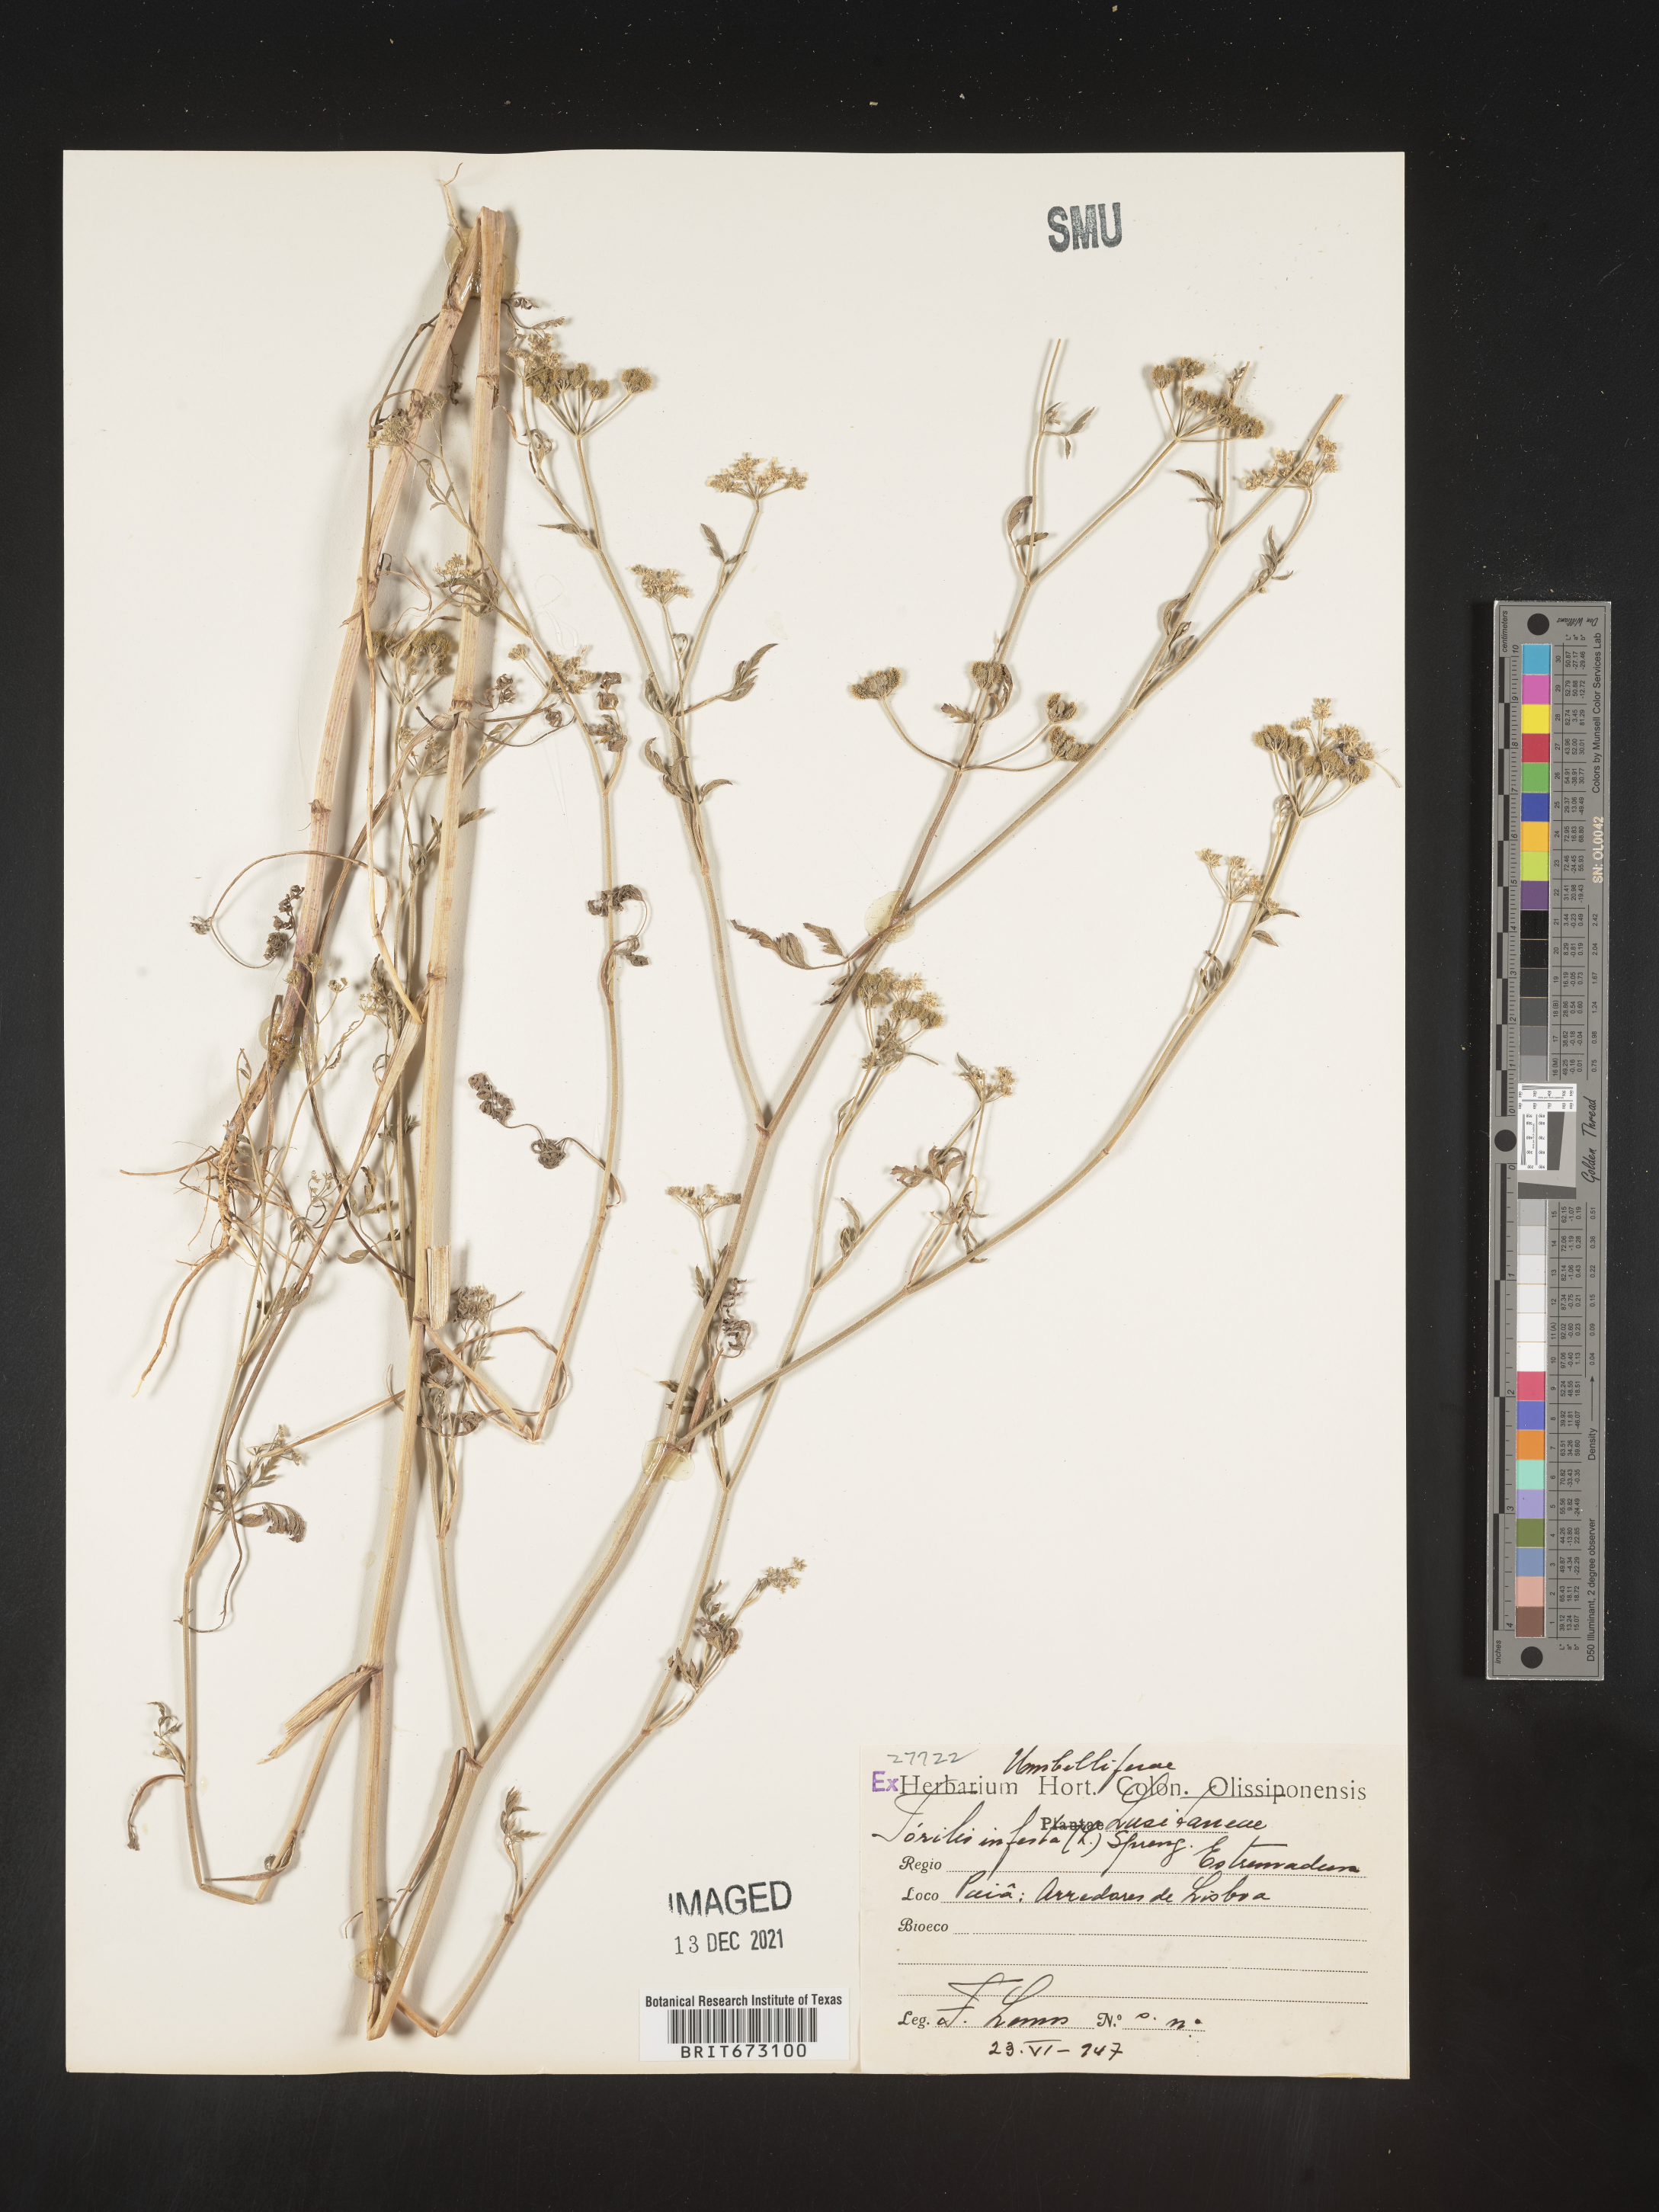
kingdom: Plantae
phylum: Tracheophyta
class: Magnoliopsida
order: Apiales
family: Apiaceae
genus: Torilis
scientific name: Torilis
